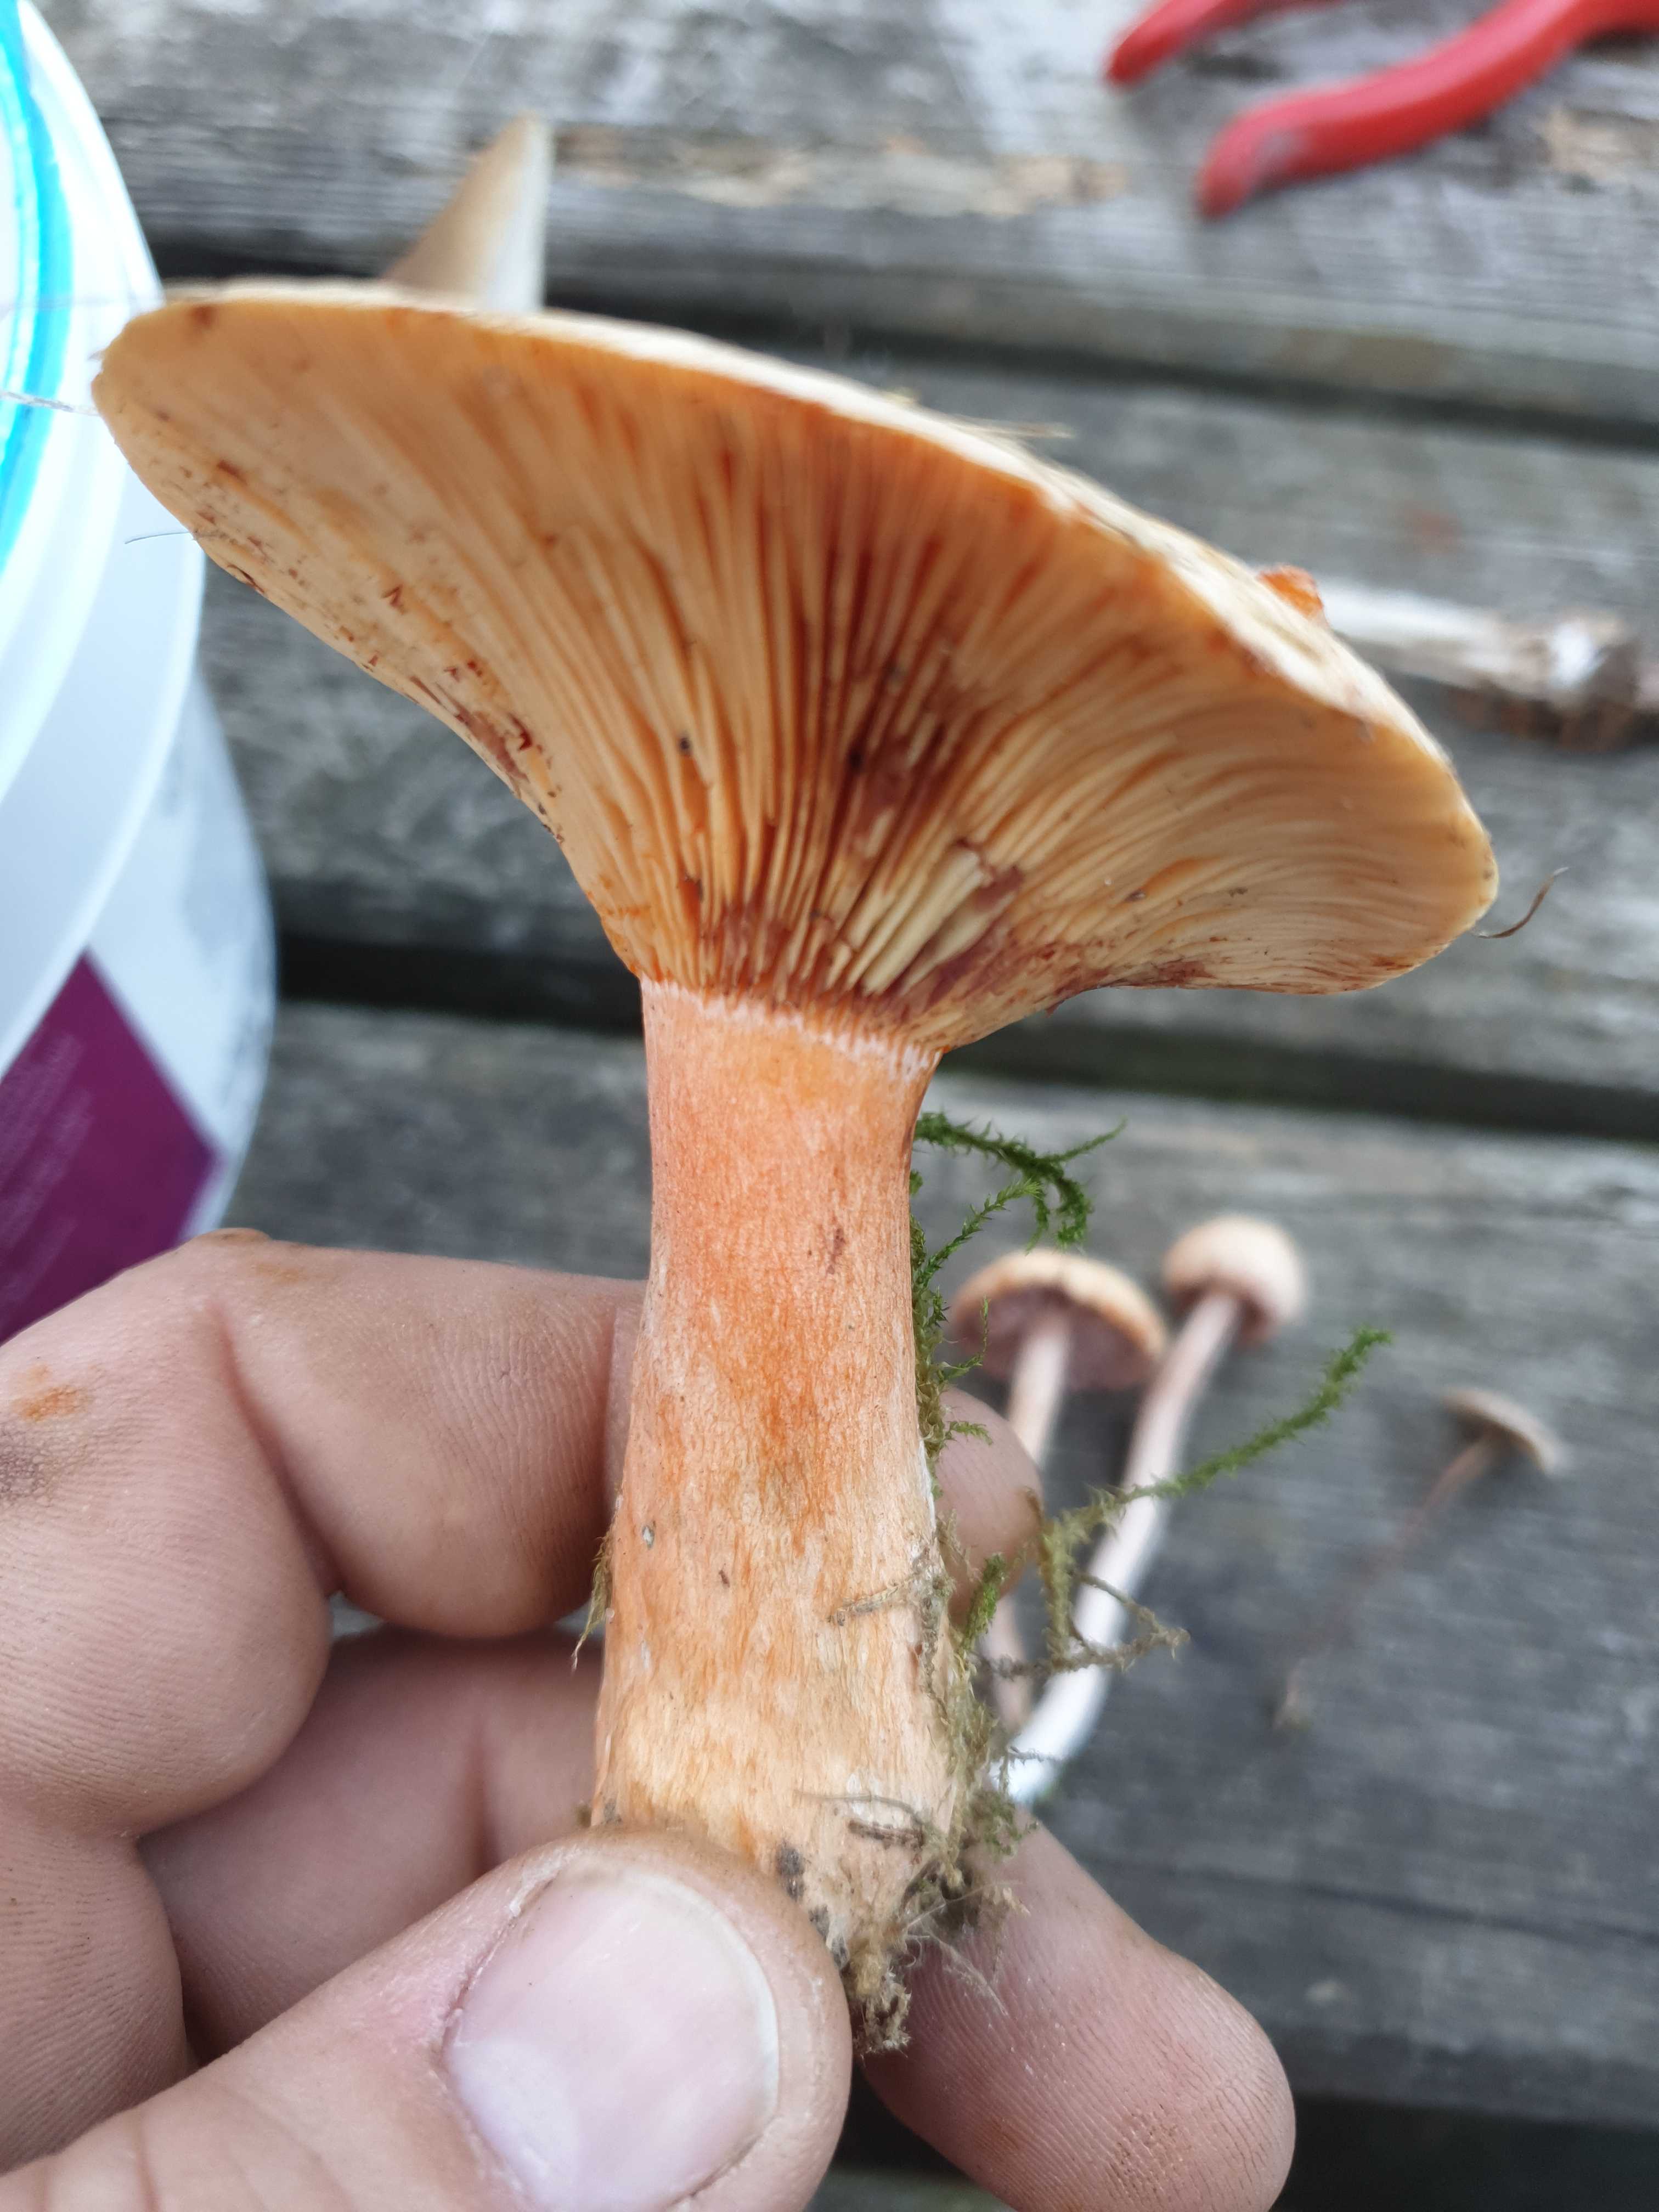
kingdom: Fungi
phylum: Basidiomycota
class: Agaricomycetes
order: Russulales
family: Russulaceae
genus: Lactarius
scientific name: Lactarius deterrimus
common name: gran-mælkehat
